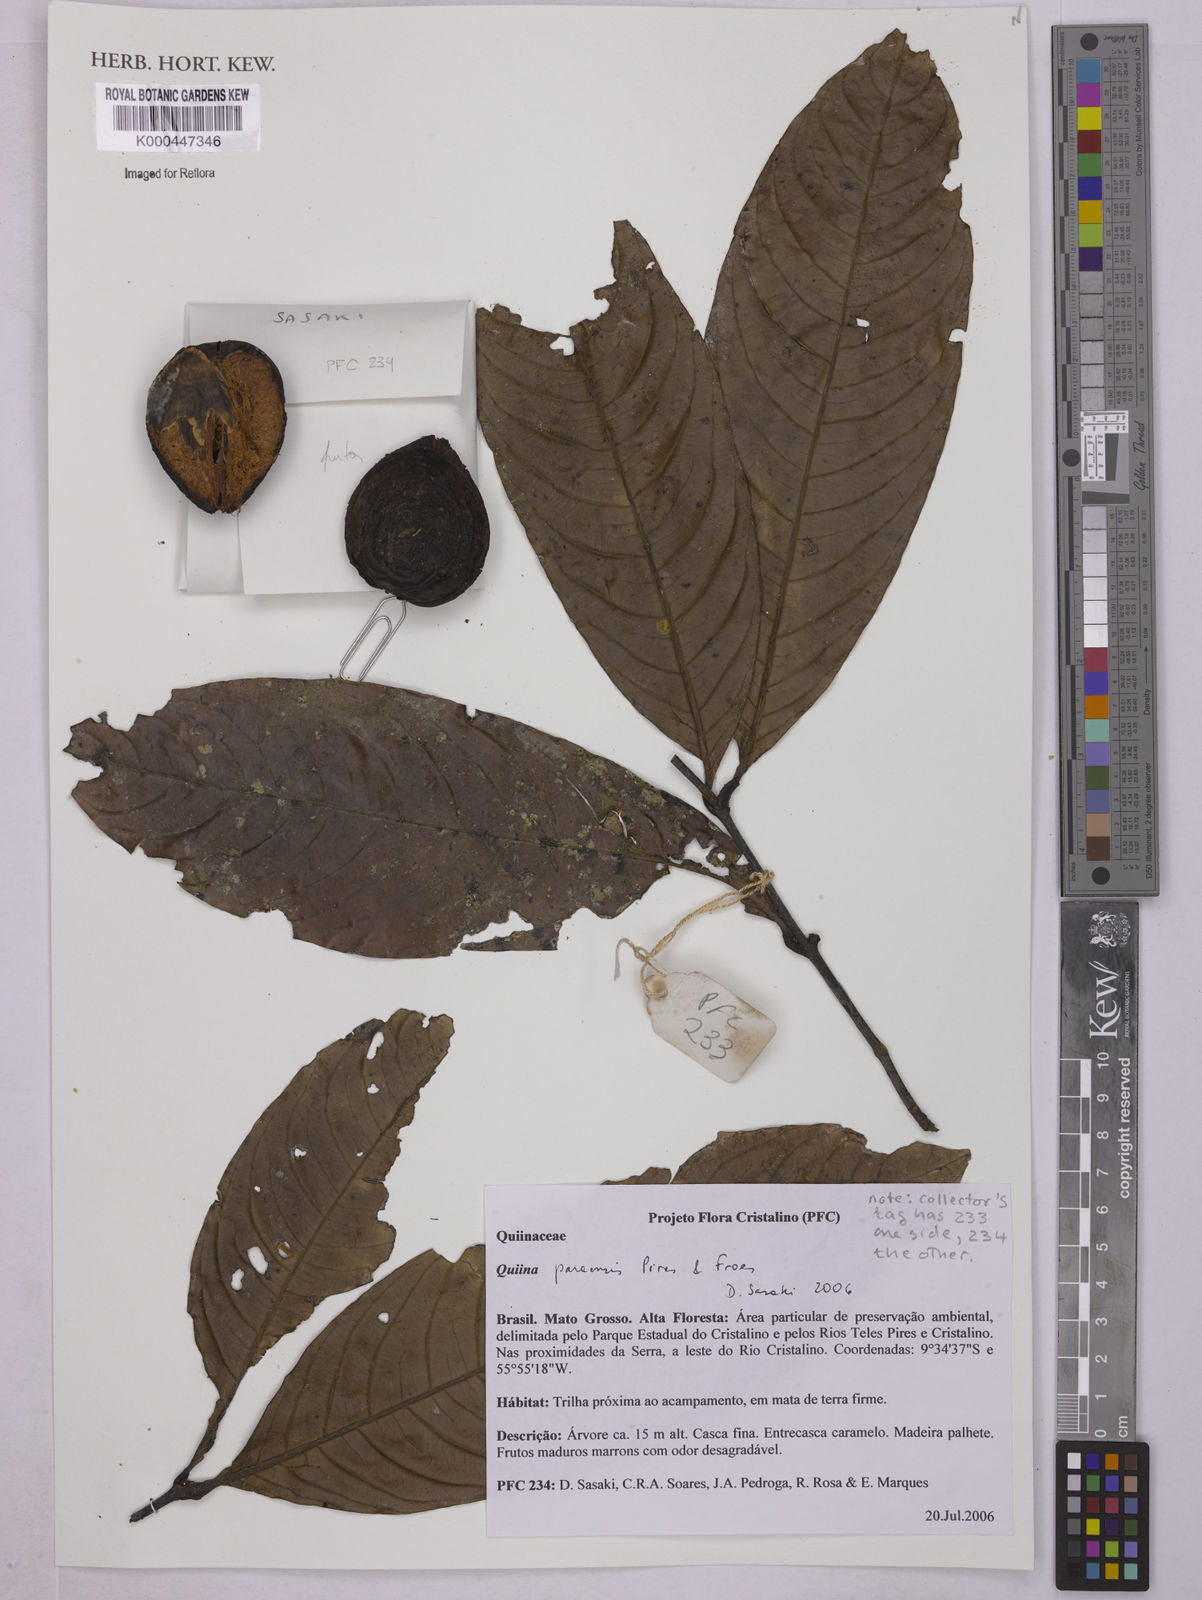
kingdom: Plantae
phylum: Tracheophyta
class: Magnoliopsida
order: Malpighiales
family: Quiinaceae
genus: Quiina
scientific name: Quiina
